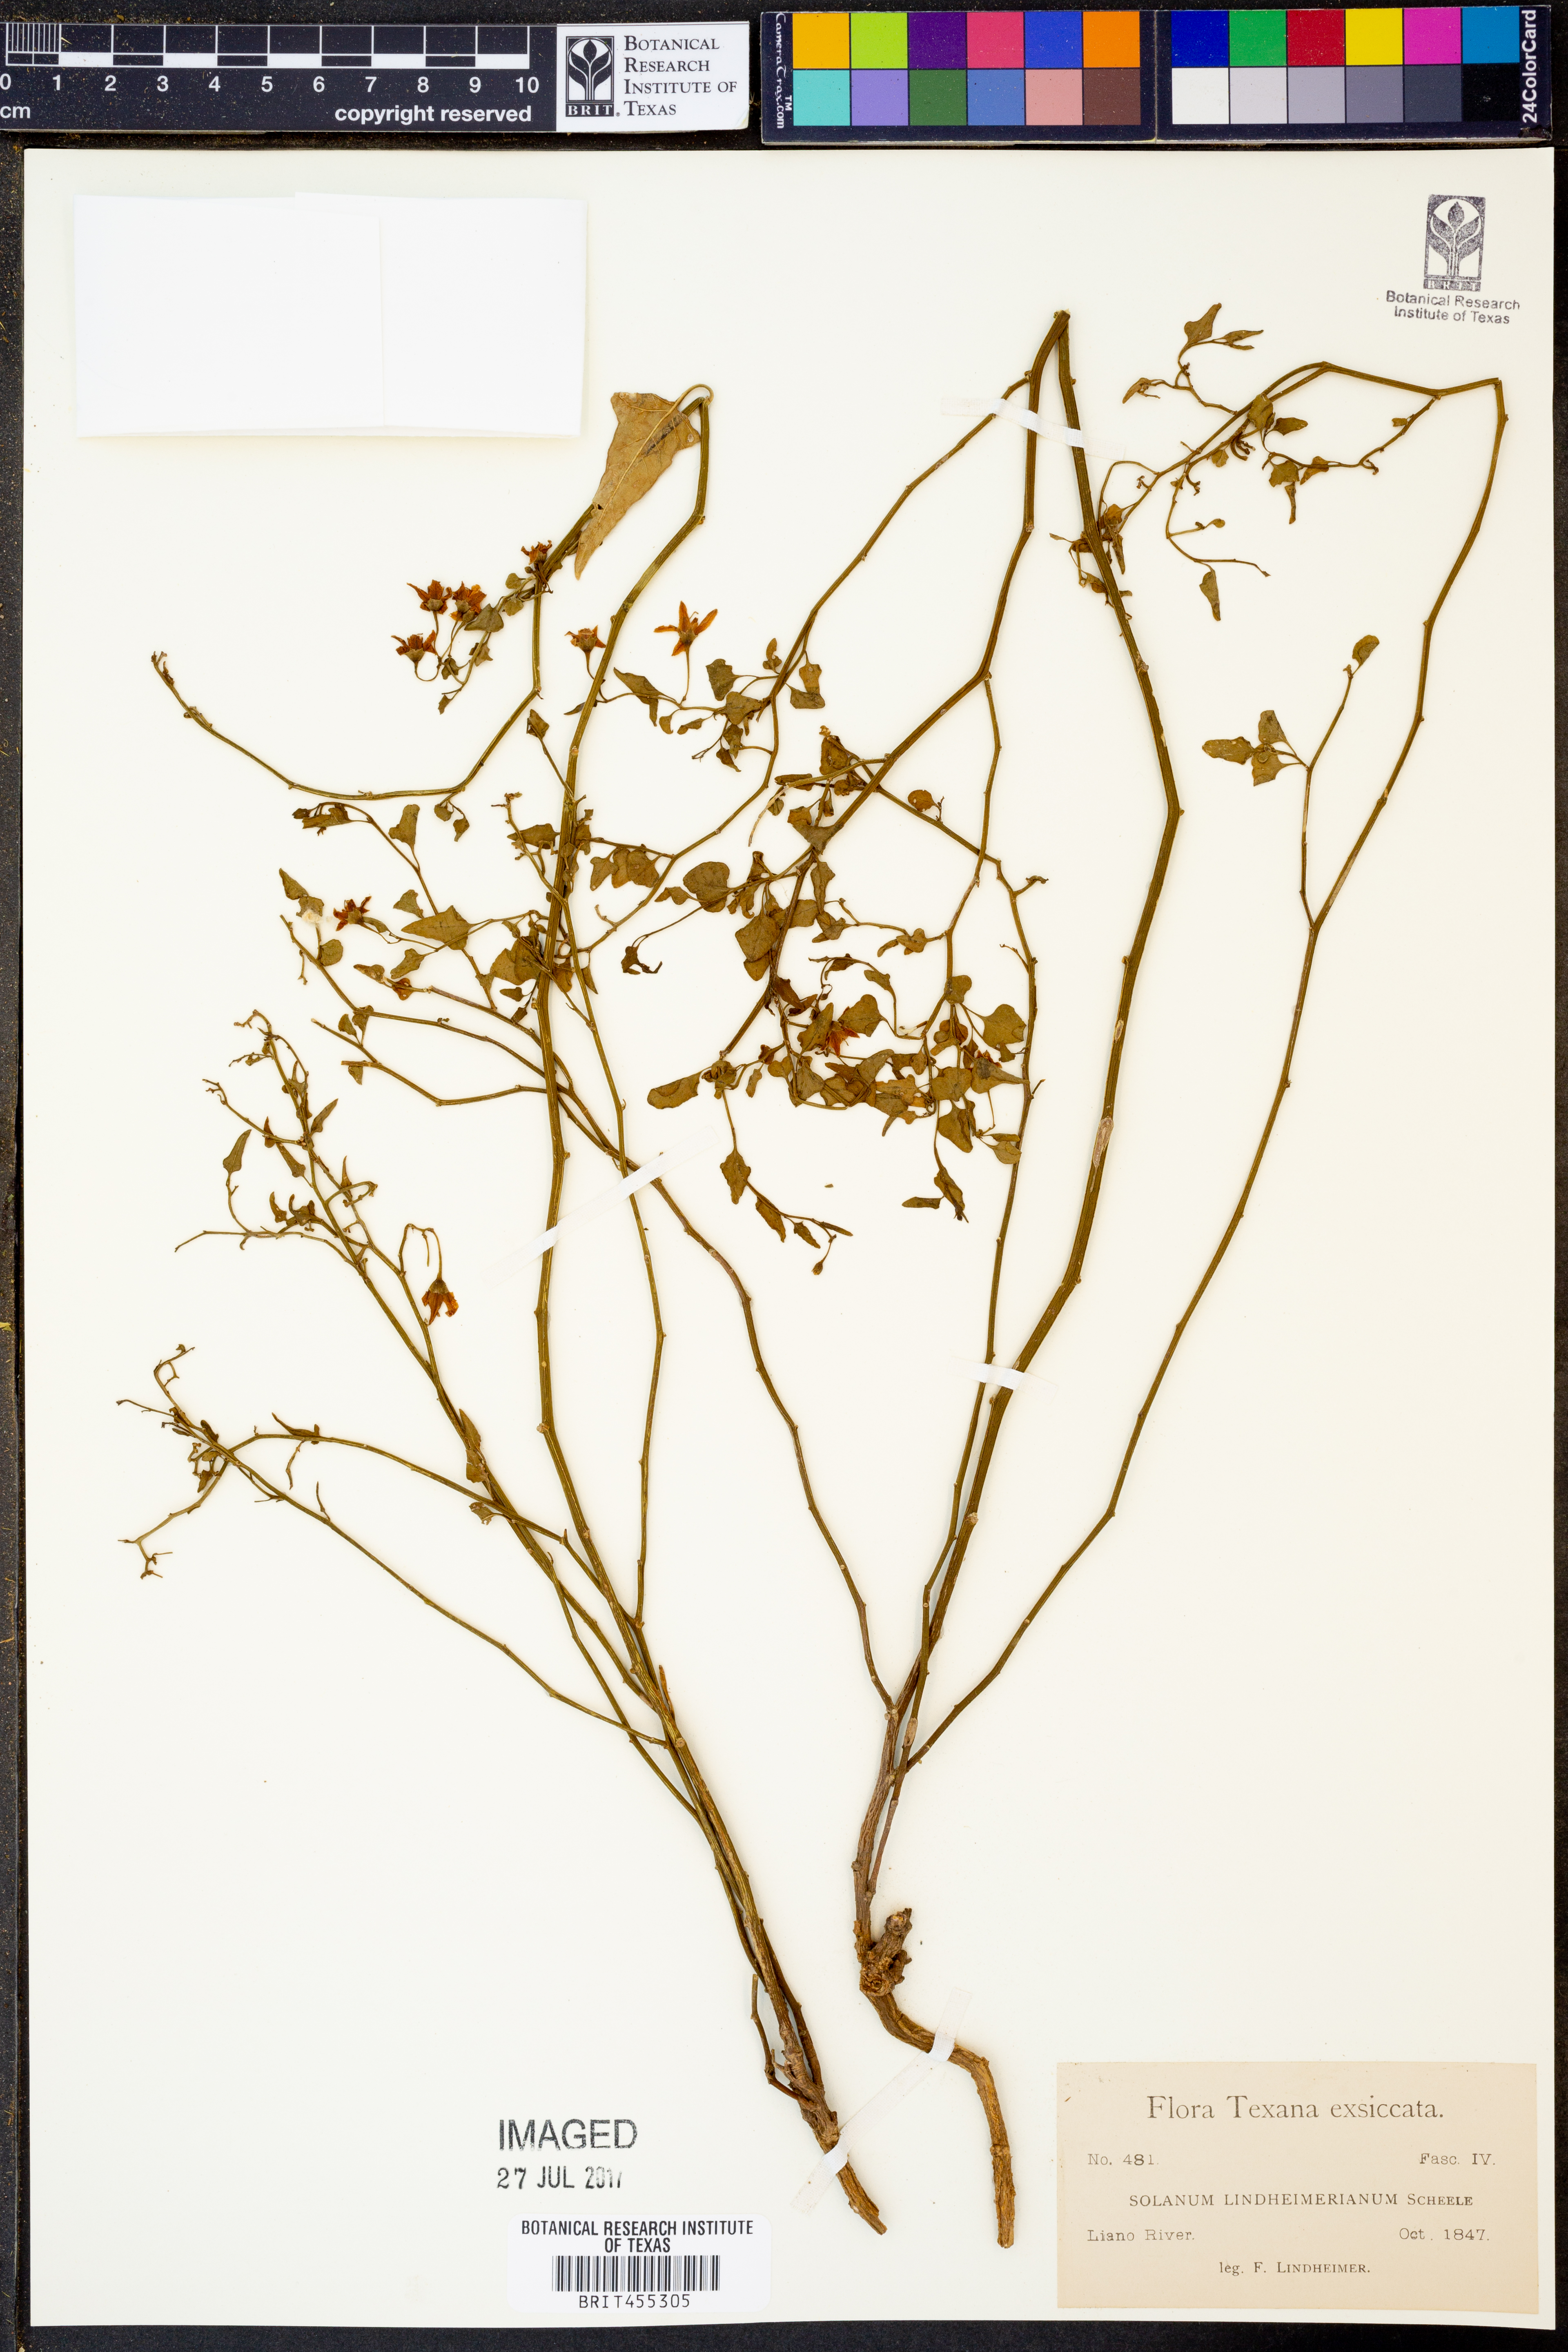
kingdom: Plantae
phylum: Tracheophyta
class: Magnoliopsida
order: Solanales
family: Solanaceae
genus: Solanum
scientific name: Solanum triquetrum
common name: Texas nightshade
